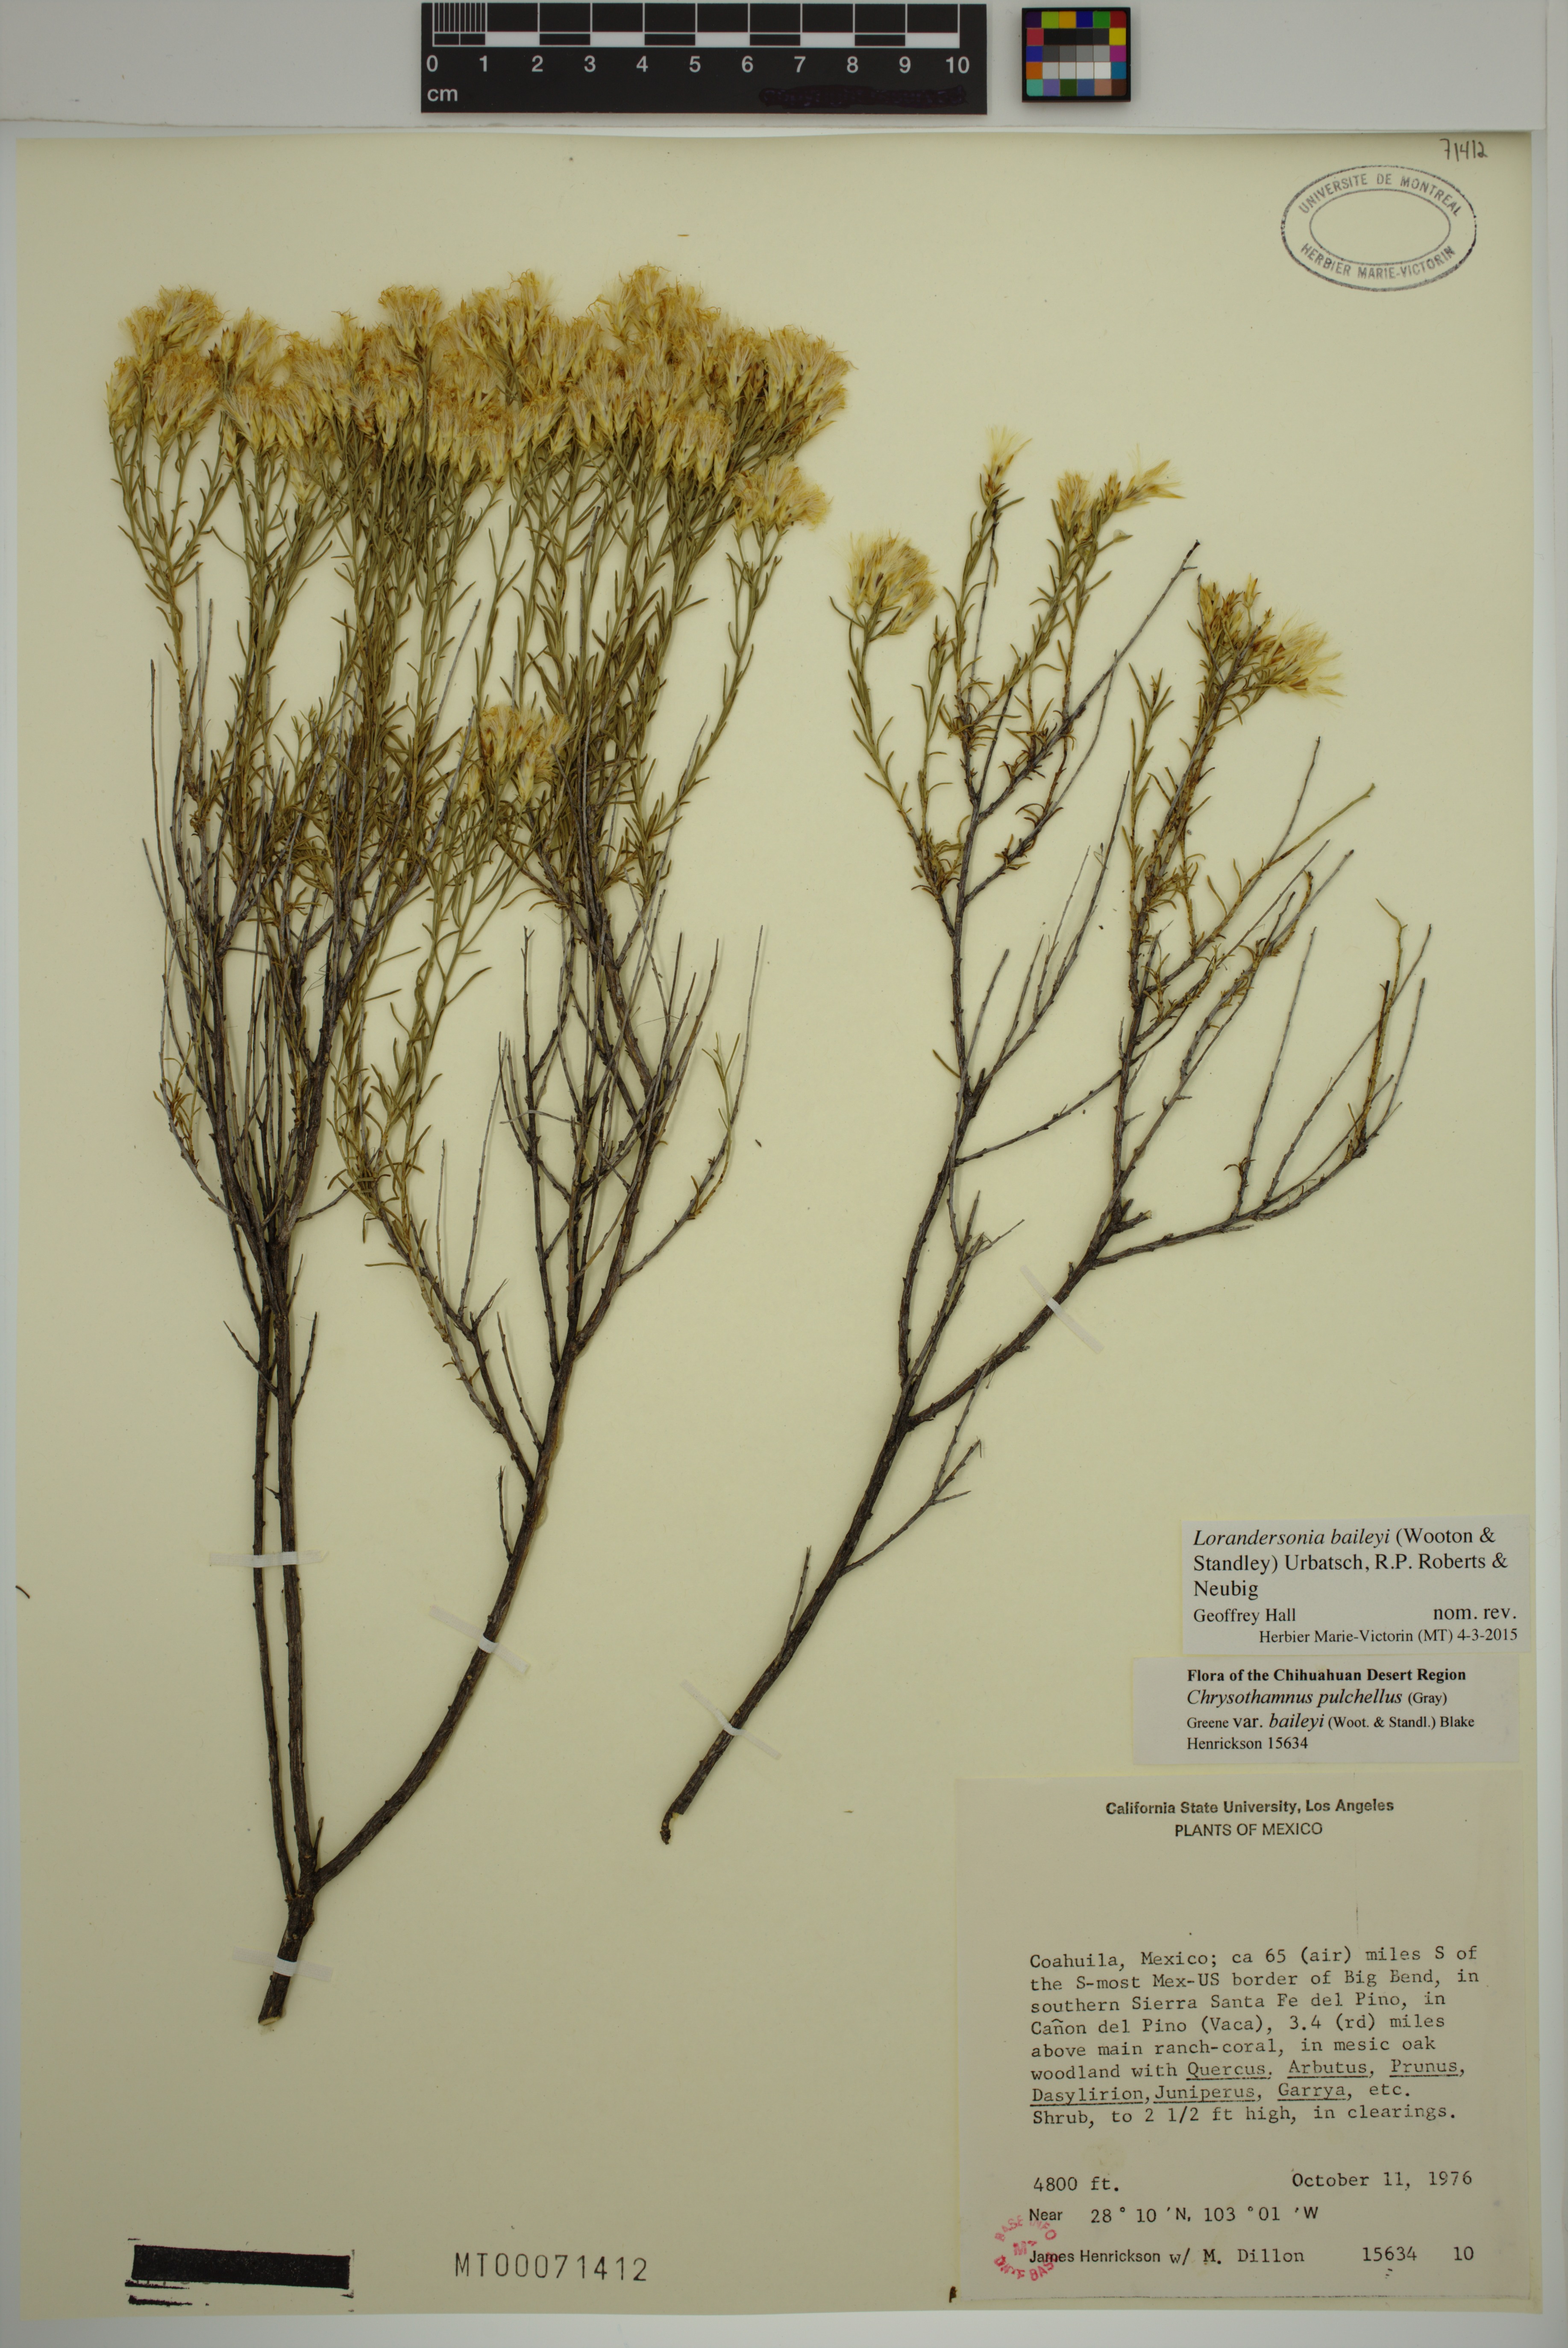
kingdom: Plantae
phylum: Tracheophyta
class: Magnoliopsida
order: Asterales
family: Asteraceae
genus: Lorandersonia
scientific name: Lorandersonia baileyi
